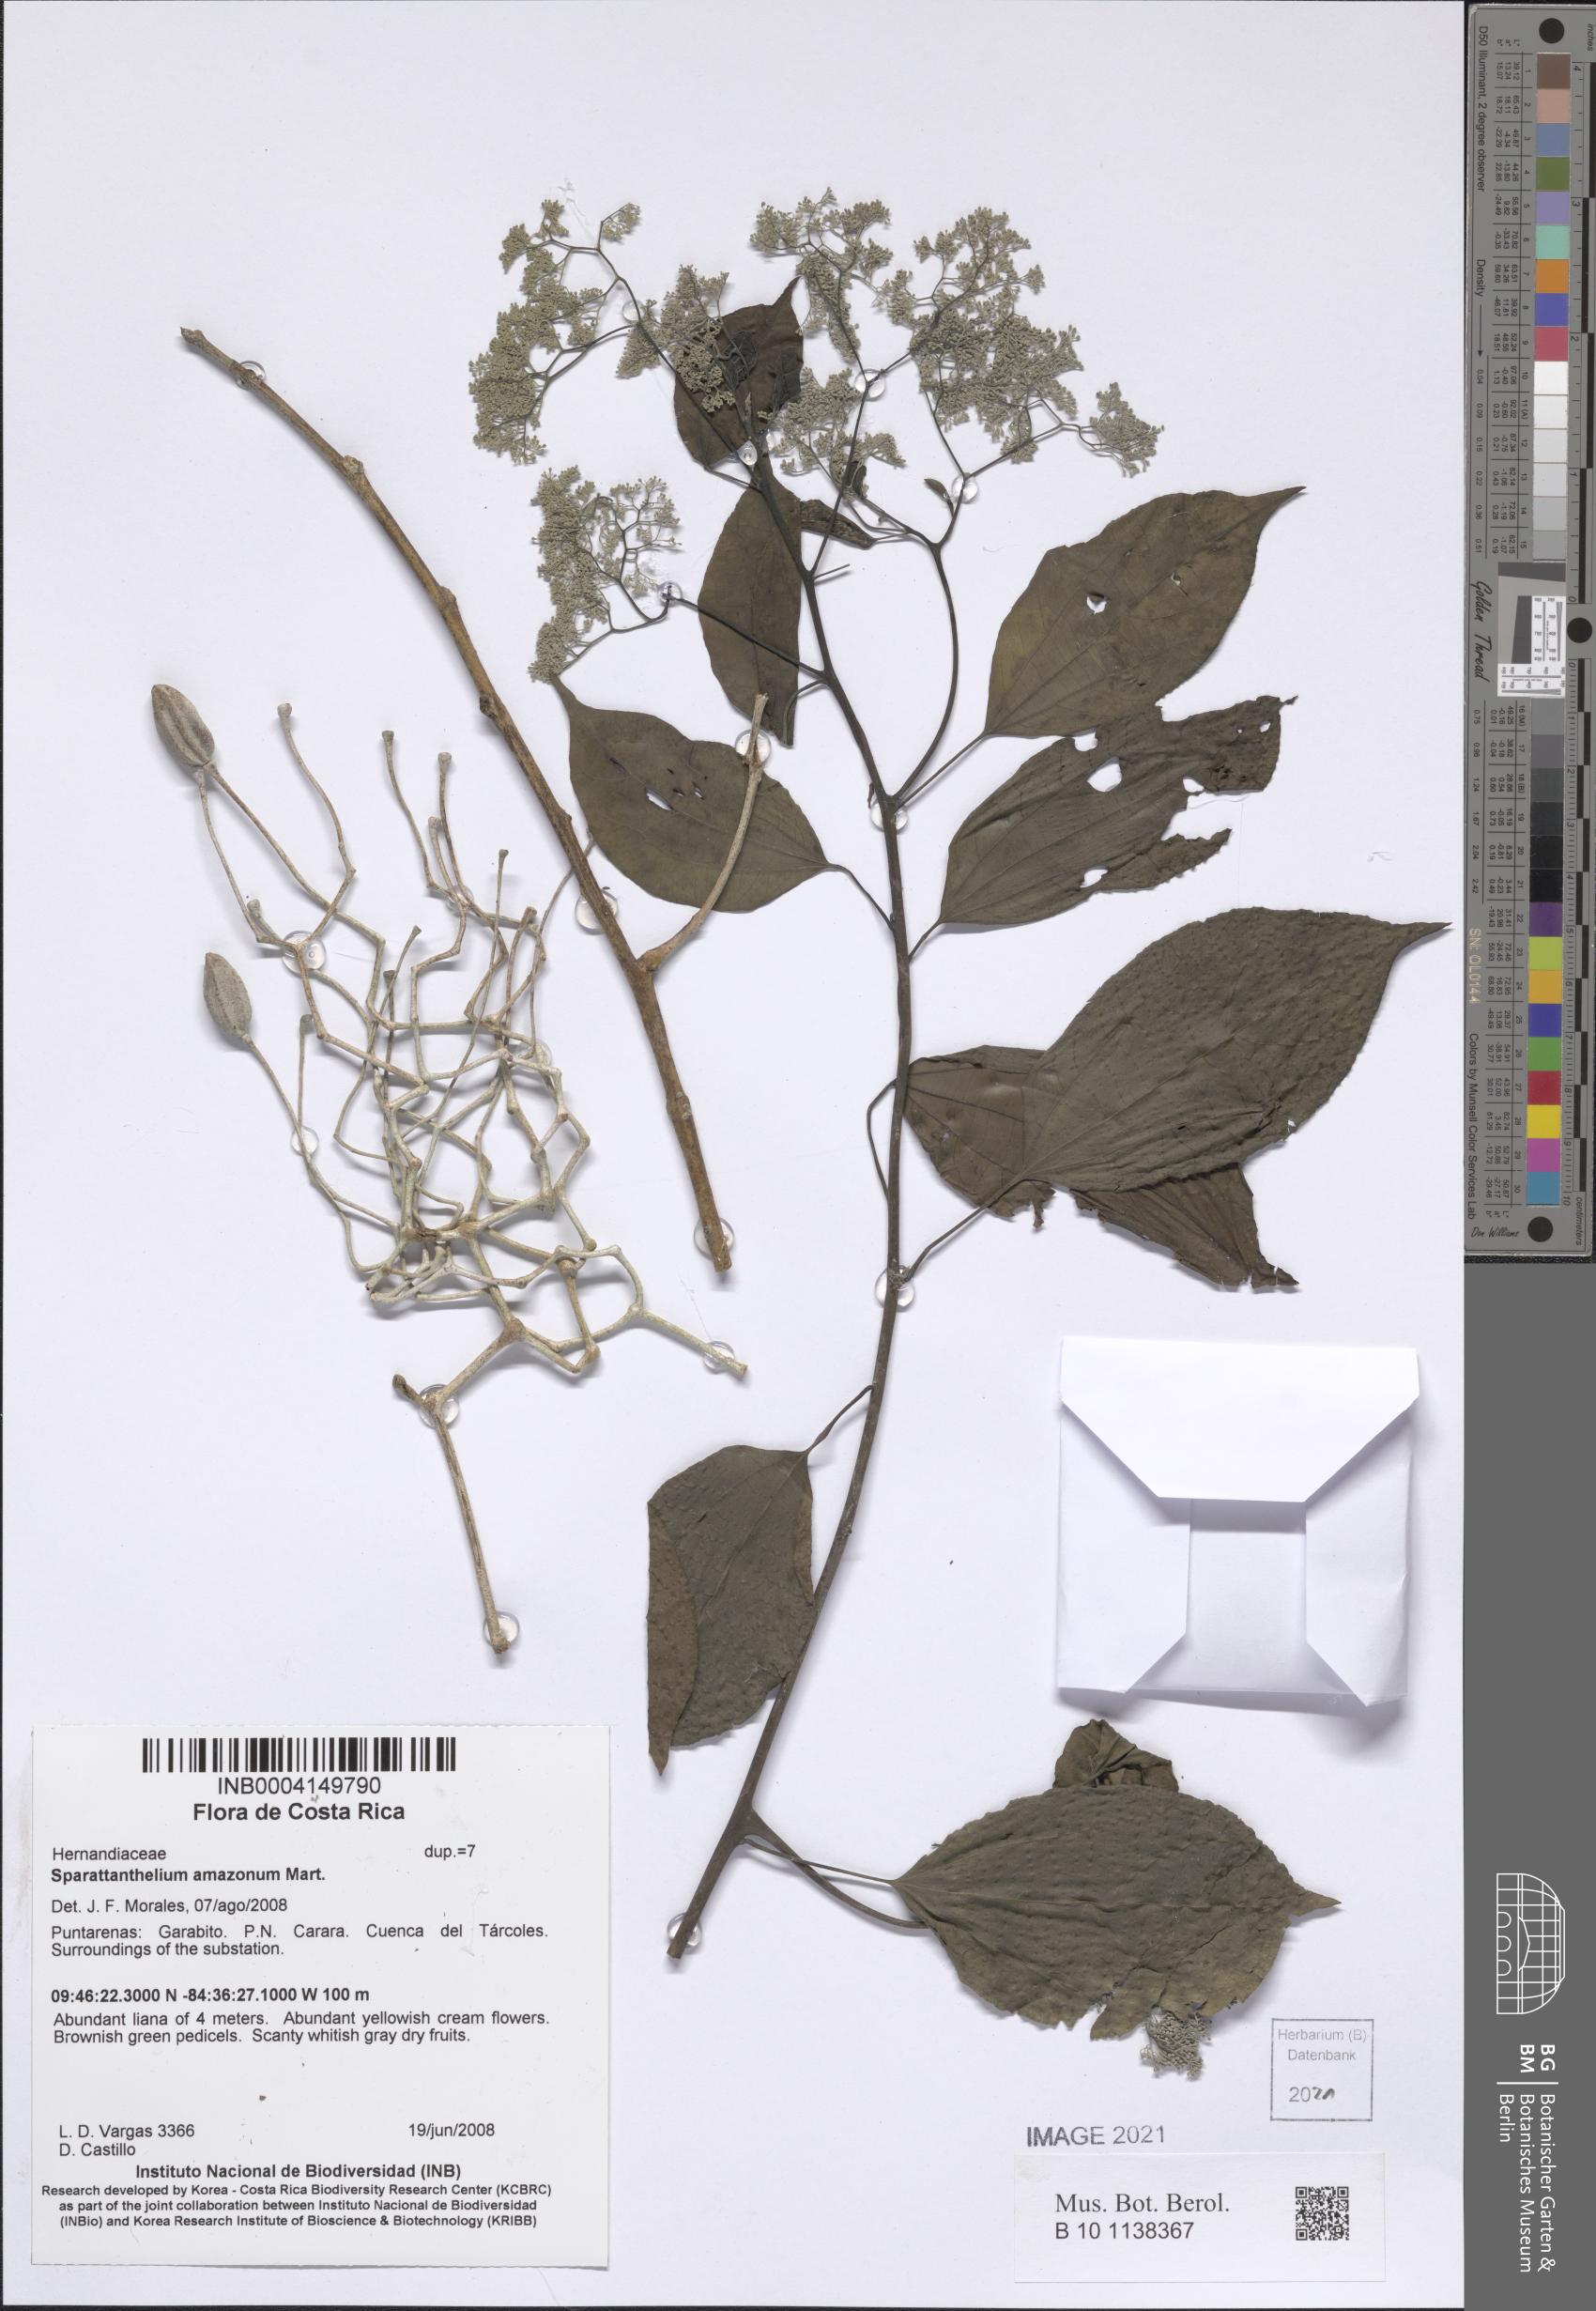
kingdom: Plantae
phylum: Tracheophyta
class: Magnoliopsida
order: Laurales
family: Hernandiaceae
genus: Sparattanthelium
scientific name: Sparattanthelium amazonum
